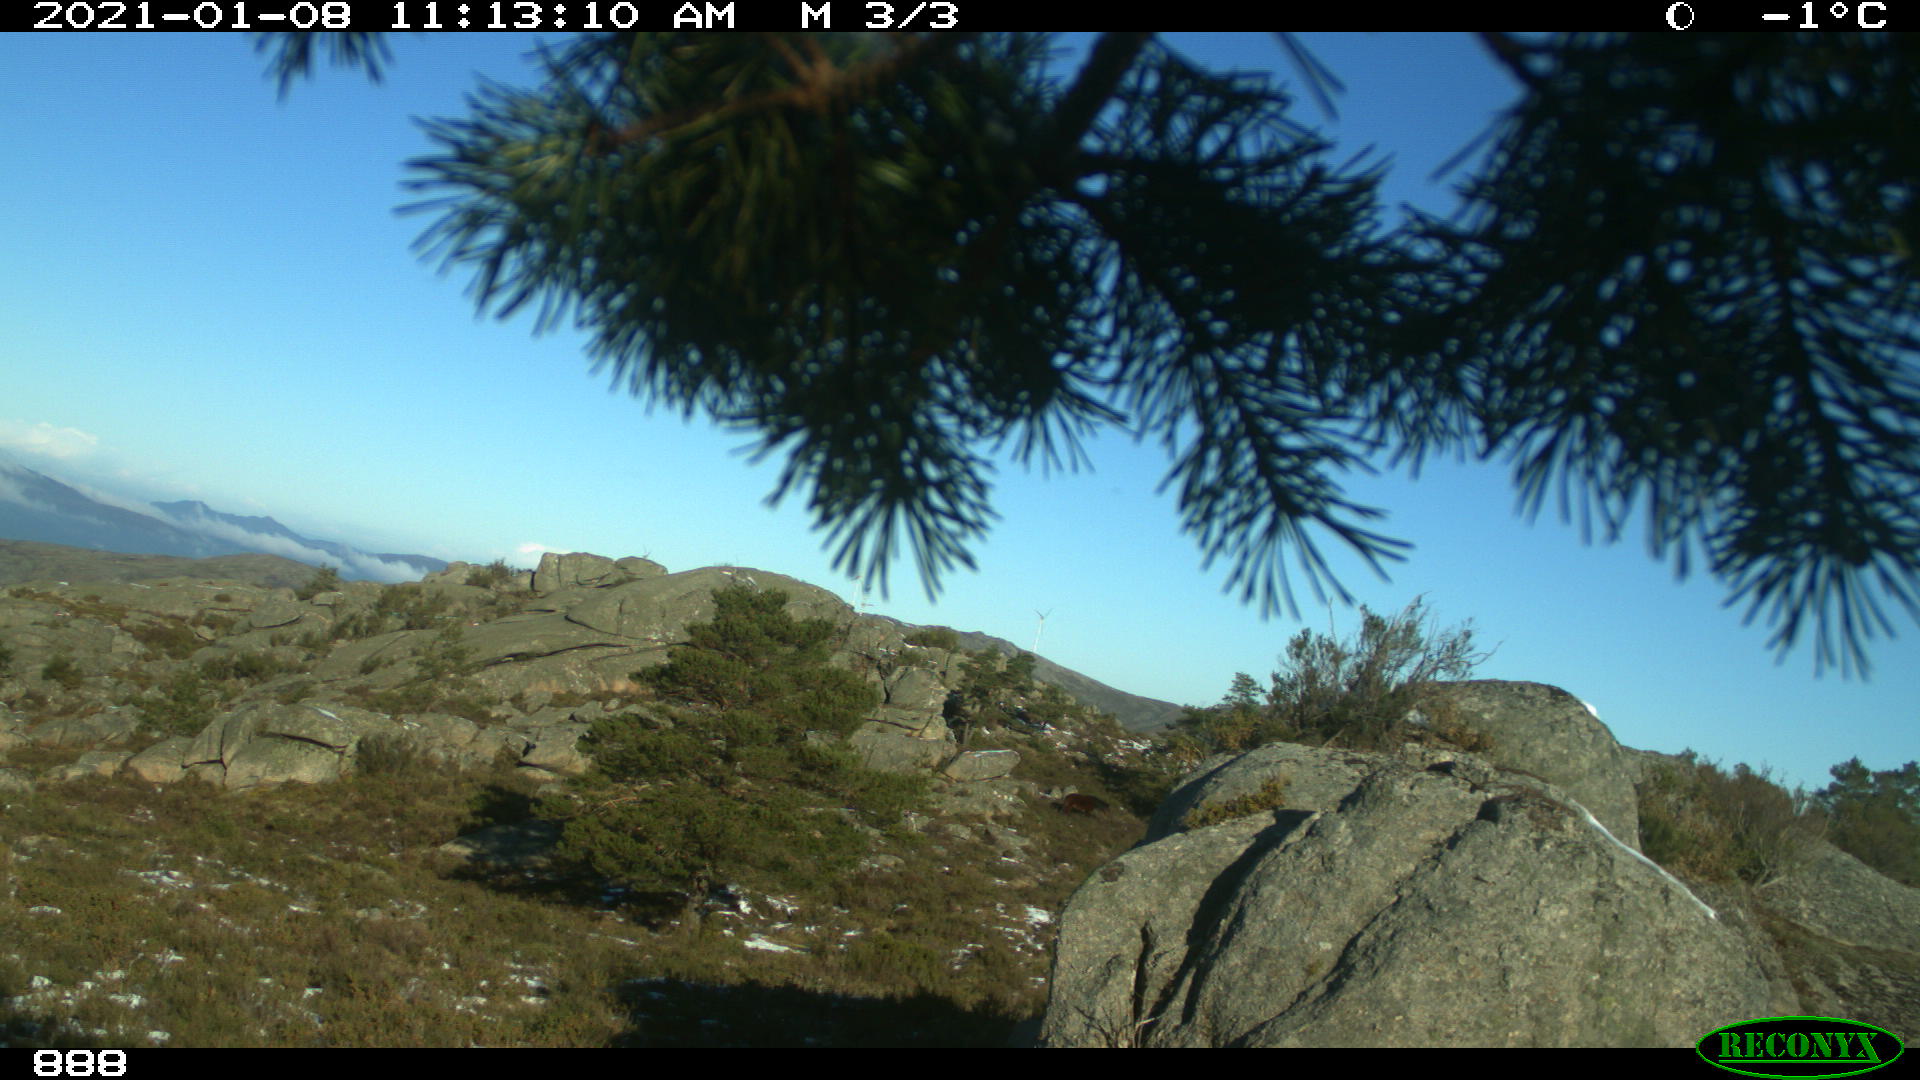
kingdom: Animalia
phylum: Chordata
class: Mammalia
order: Perissodactyla
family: Equidae
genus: Equus
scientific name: Equus caballus
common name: Horse
